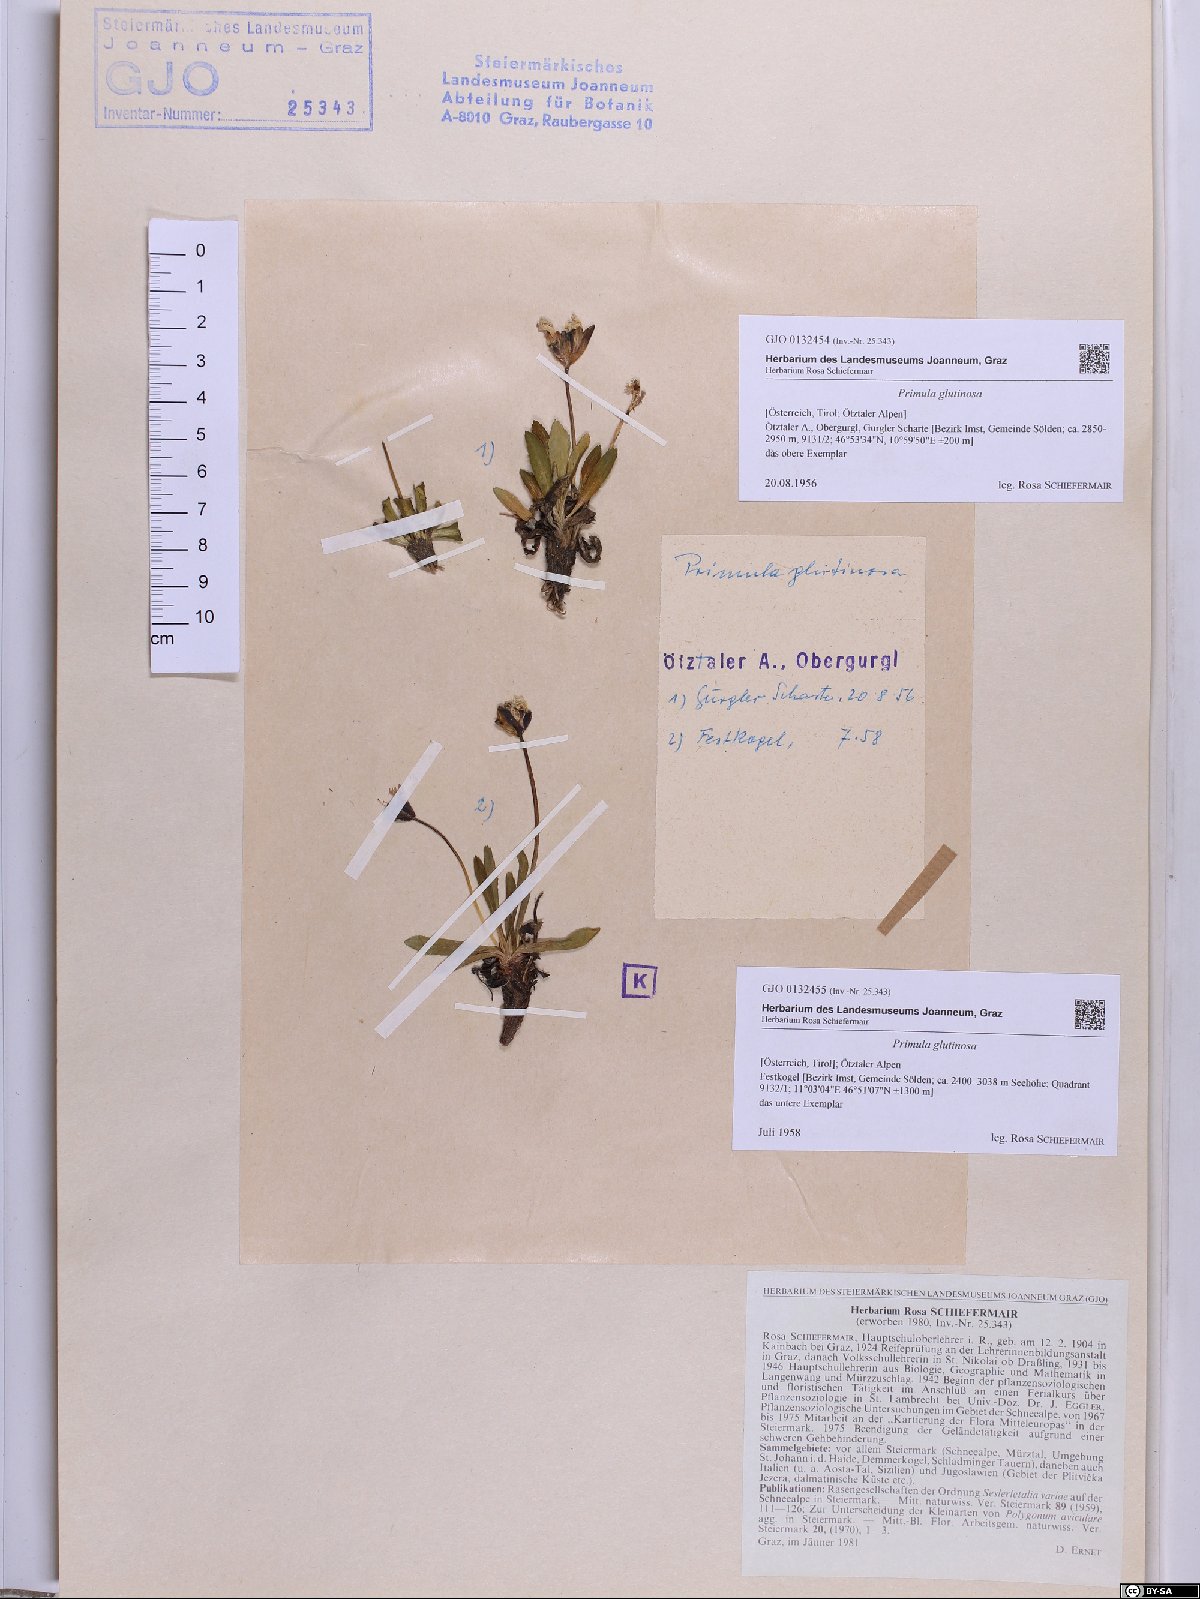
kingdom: Plantae
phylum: Tracheophyta
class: Magnoliopsida
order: Ericales
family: Primulaceae
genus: Primula
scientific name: Primula glutinosa
